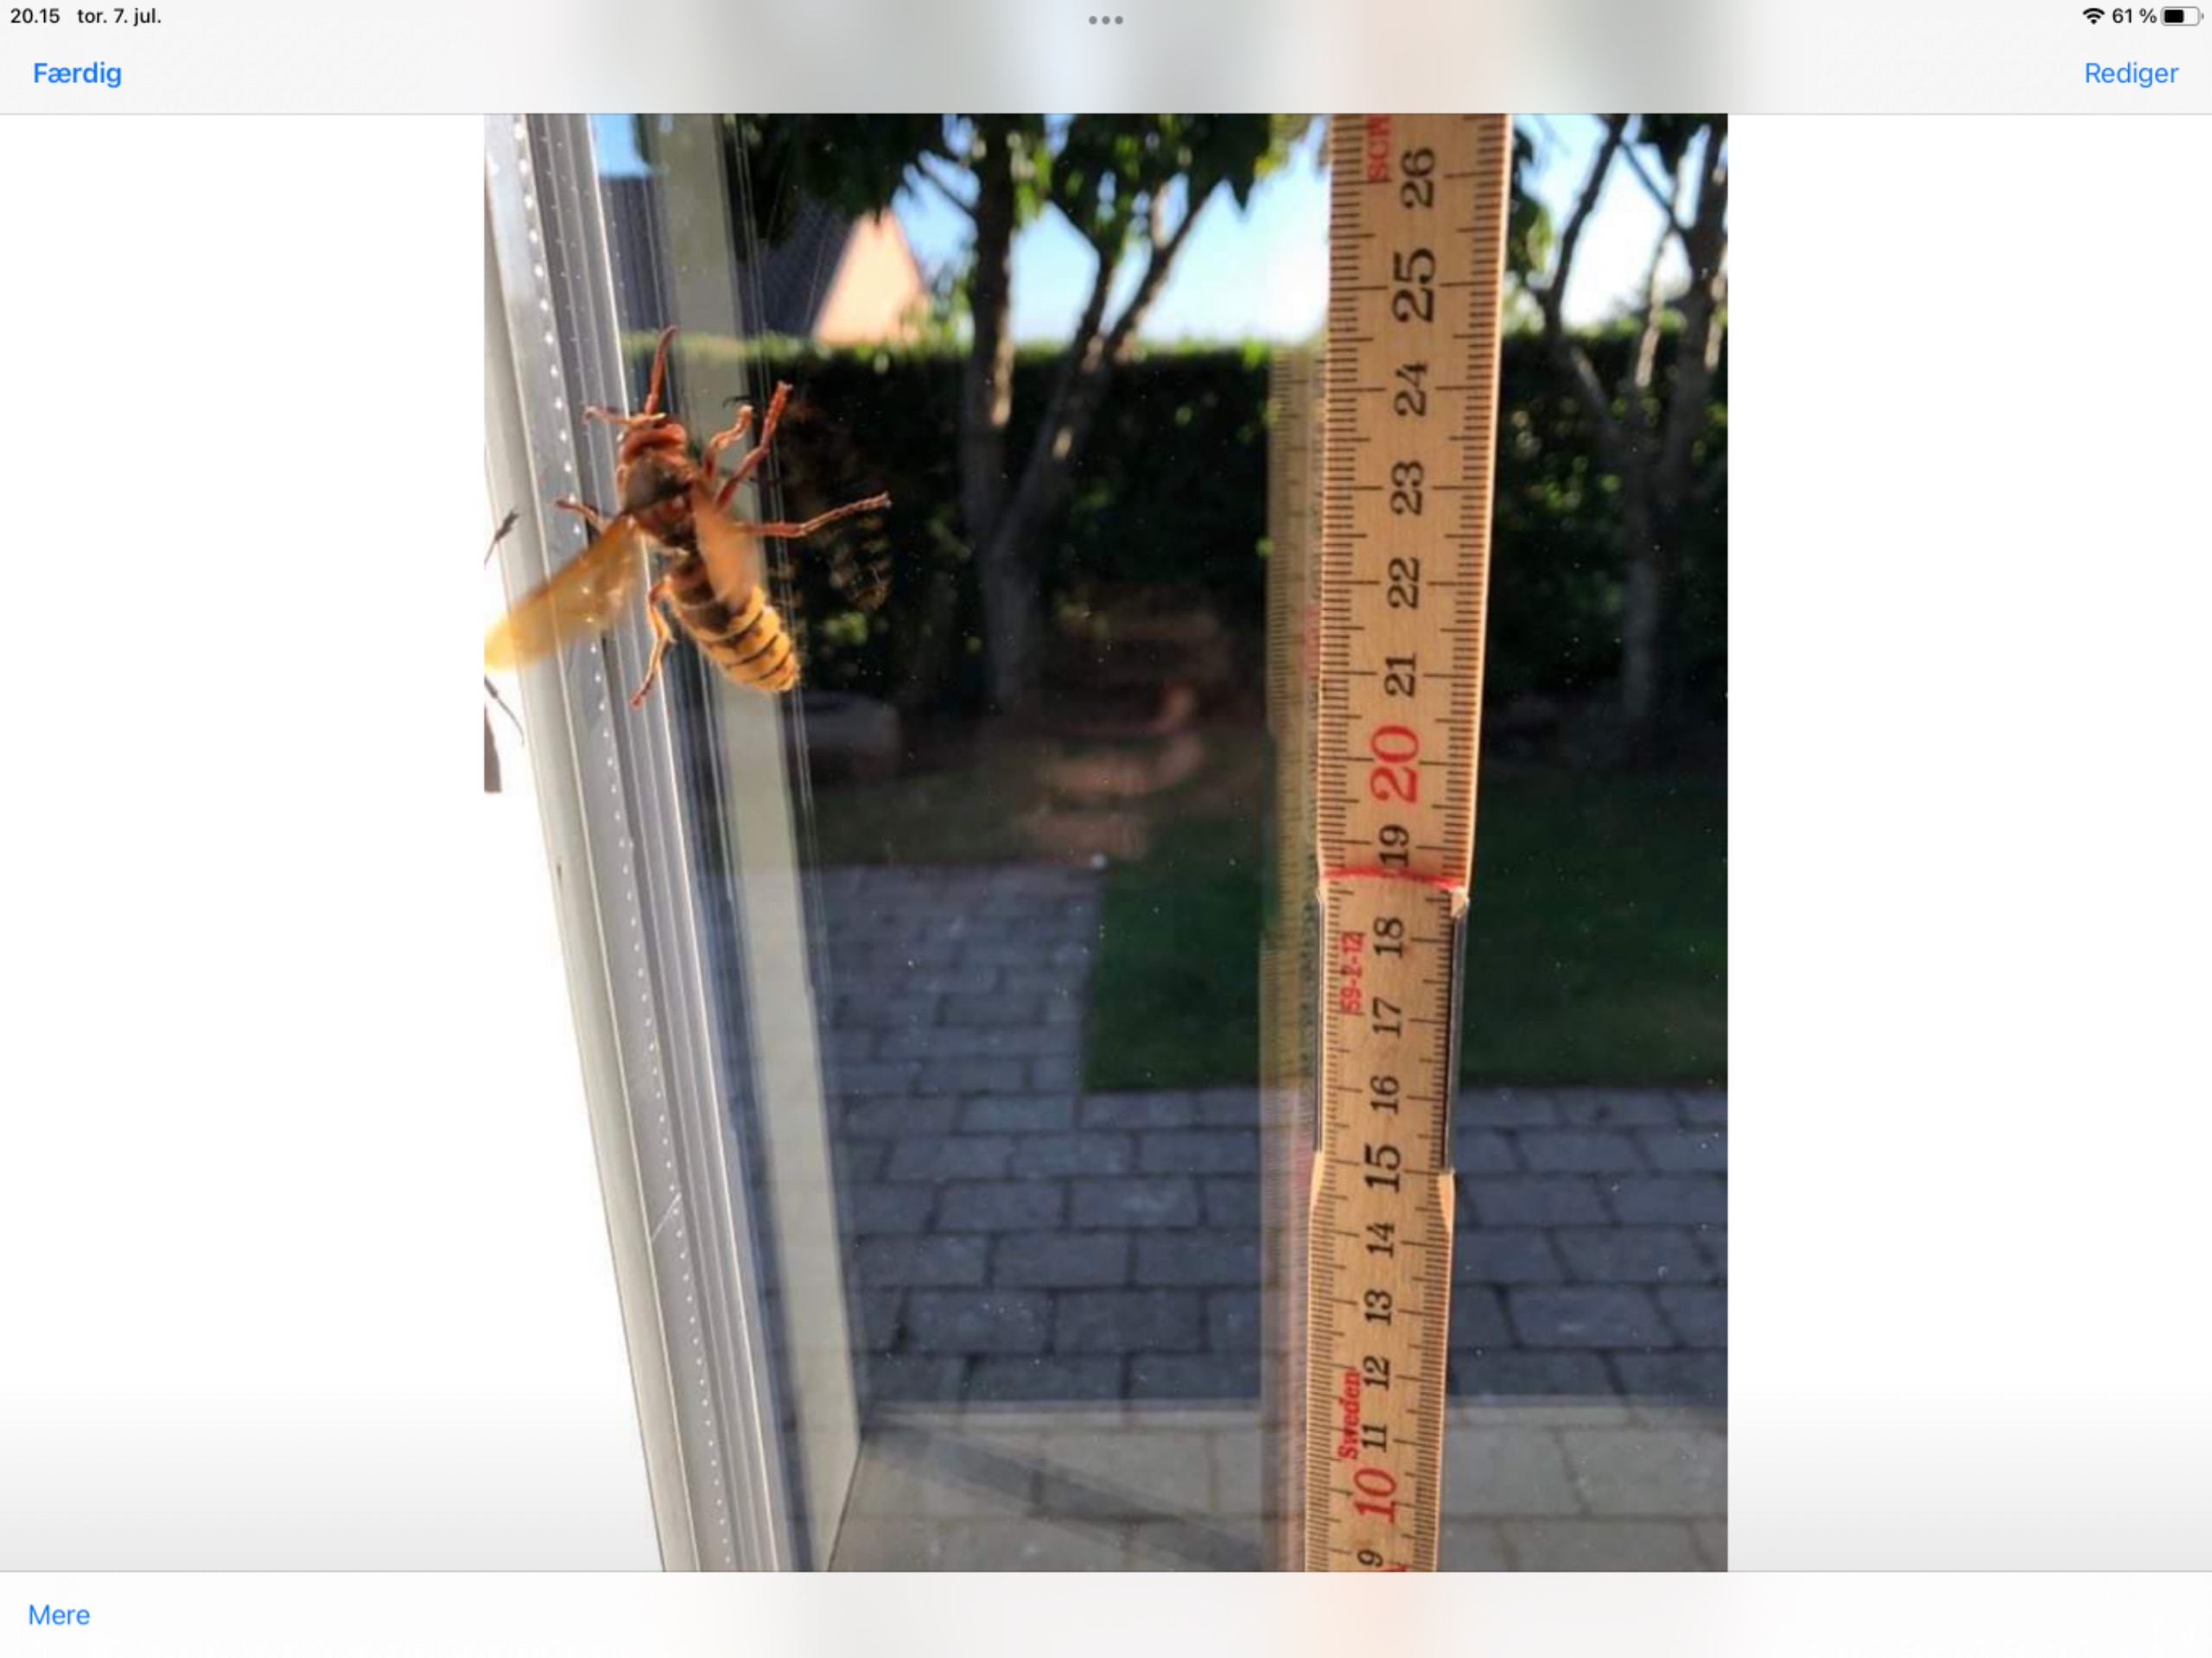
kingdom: Animalia
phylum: Arthropoda
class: Insecta
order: Hymenoptera
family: Vespidae
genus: Vespa
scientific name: Vespa crabro
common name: Stor gedehams
